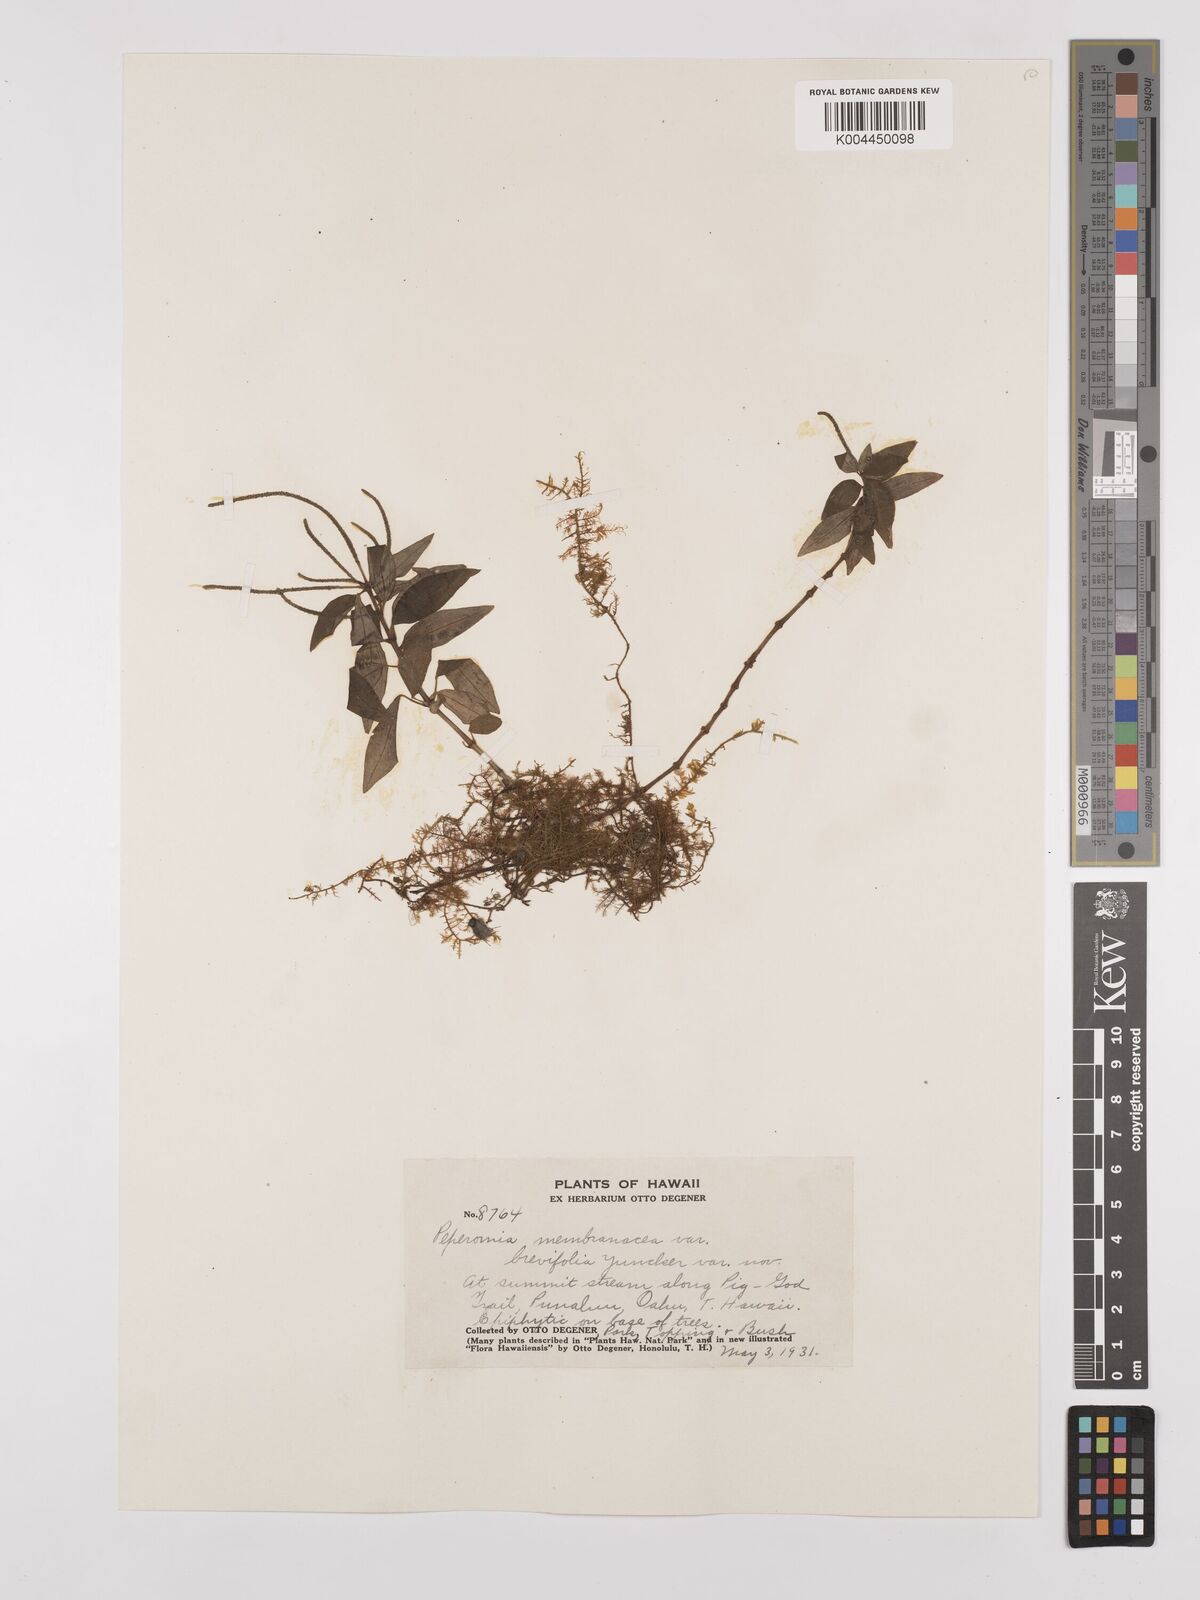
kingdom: Plantae
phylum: Tracheophyta
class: Magnoliopsida
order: Piperales
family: Piperaceae
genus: Peperomia
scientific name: Peperomia membranacea
